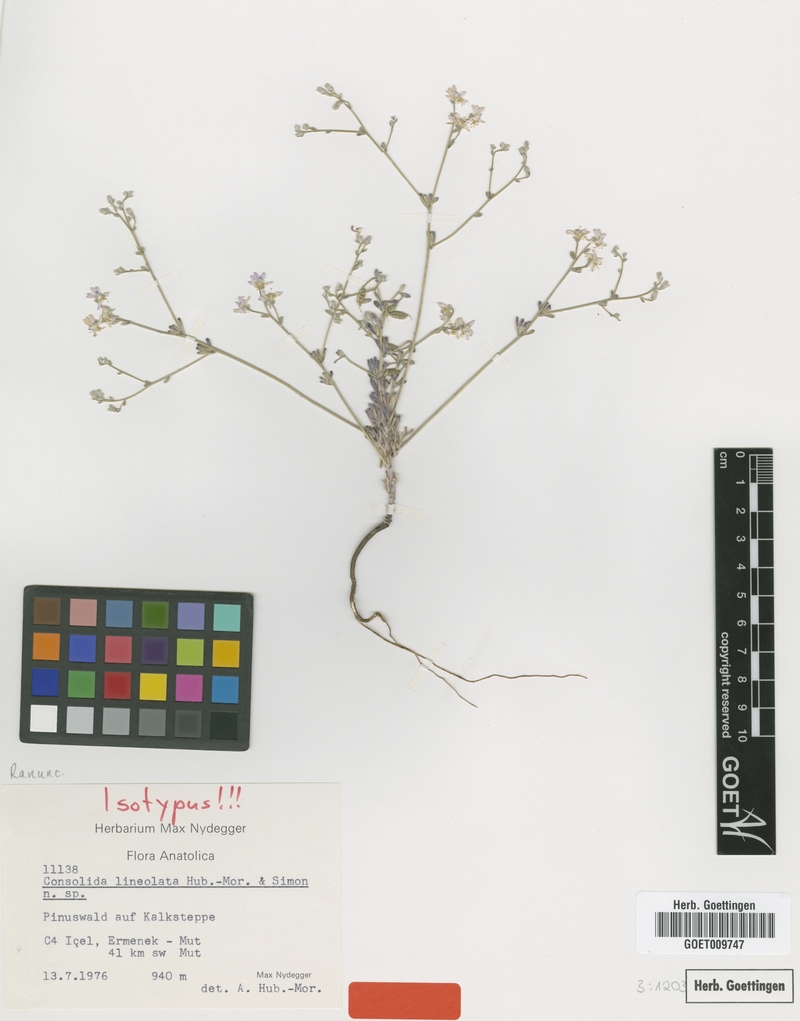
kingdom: Plantae
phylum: Tracheophyta
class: Magnoliopsida
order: Ranunculales
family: Ranunculaceae
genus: Delphinium
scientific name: Delphinium lineolatum
